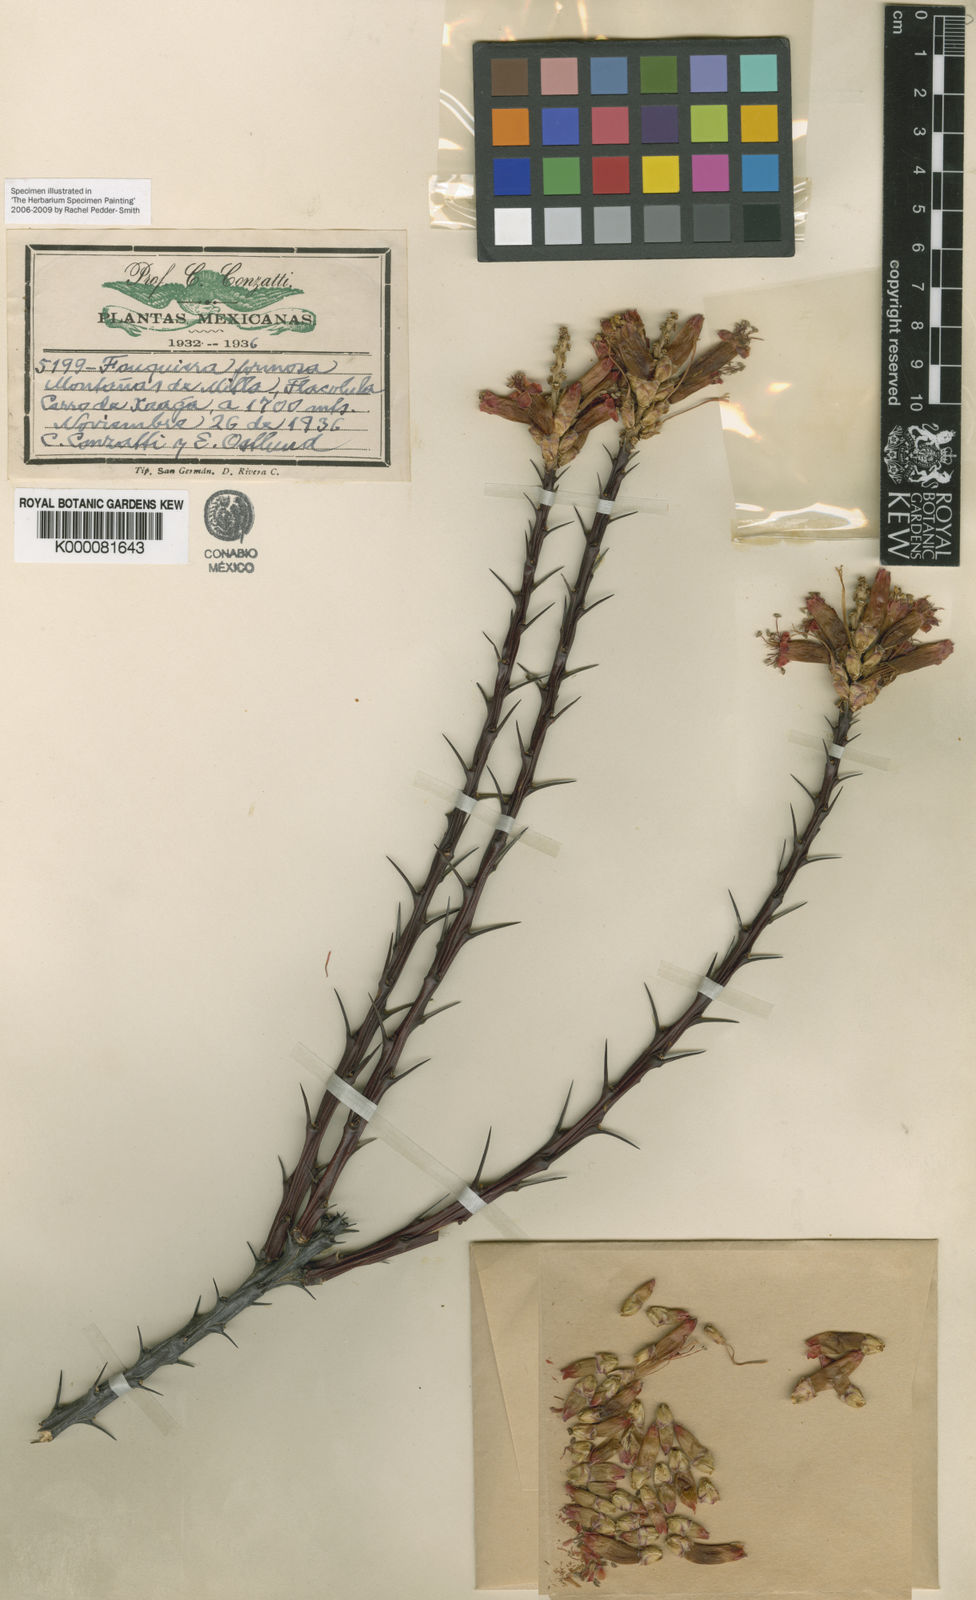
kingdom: Plantae
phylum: Tracheophyta
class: Magnoliopsida
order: Ericales
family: Fouquieriaceae
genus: Fouquieria
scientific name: Fouquieria formosa
